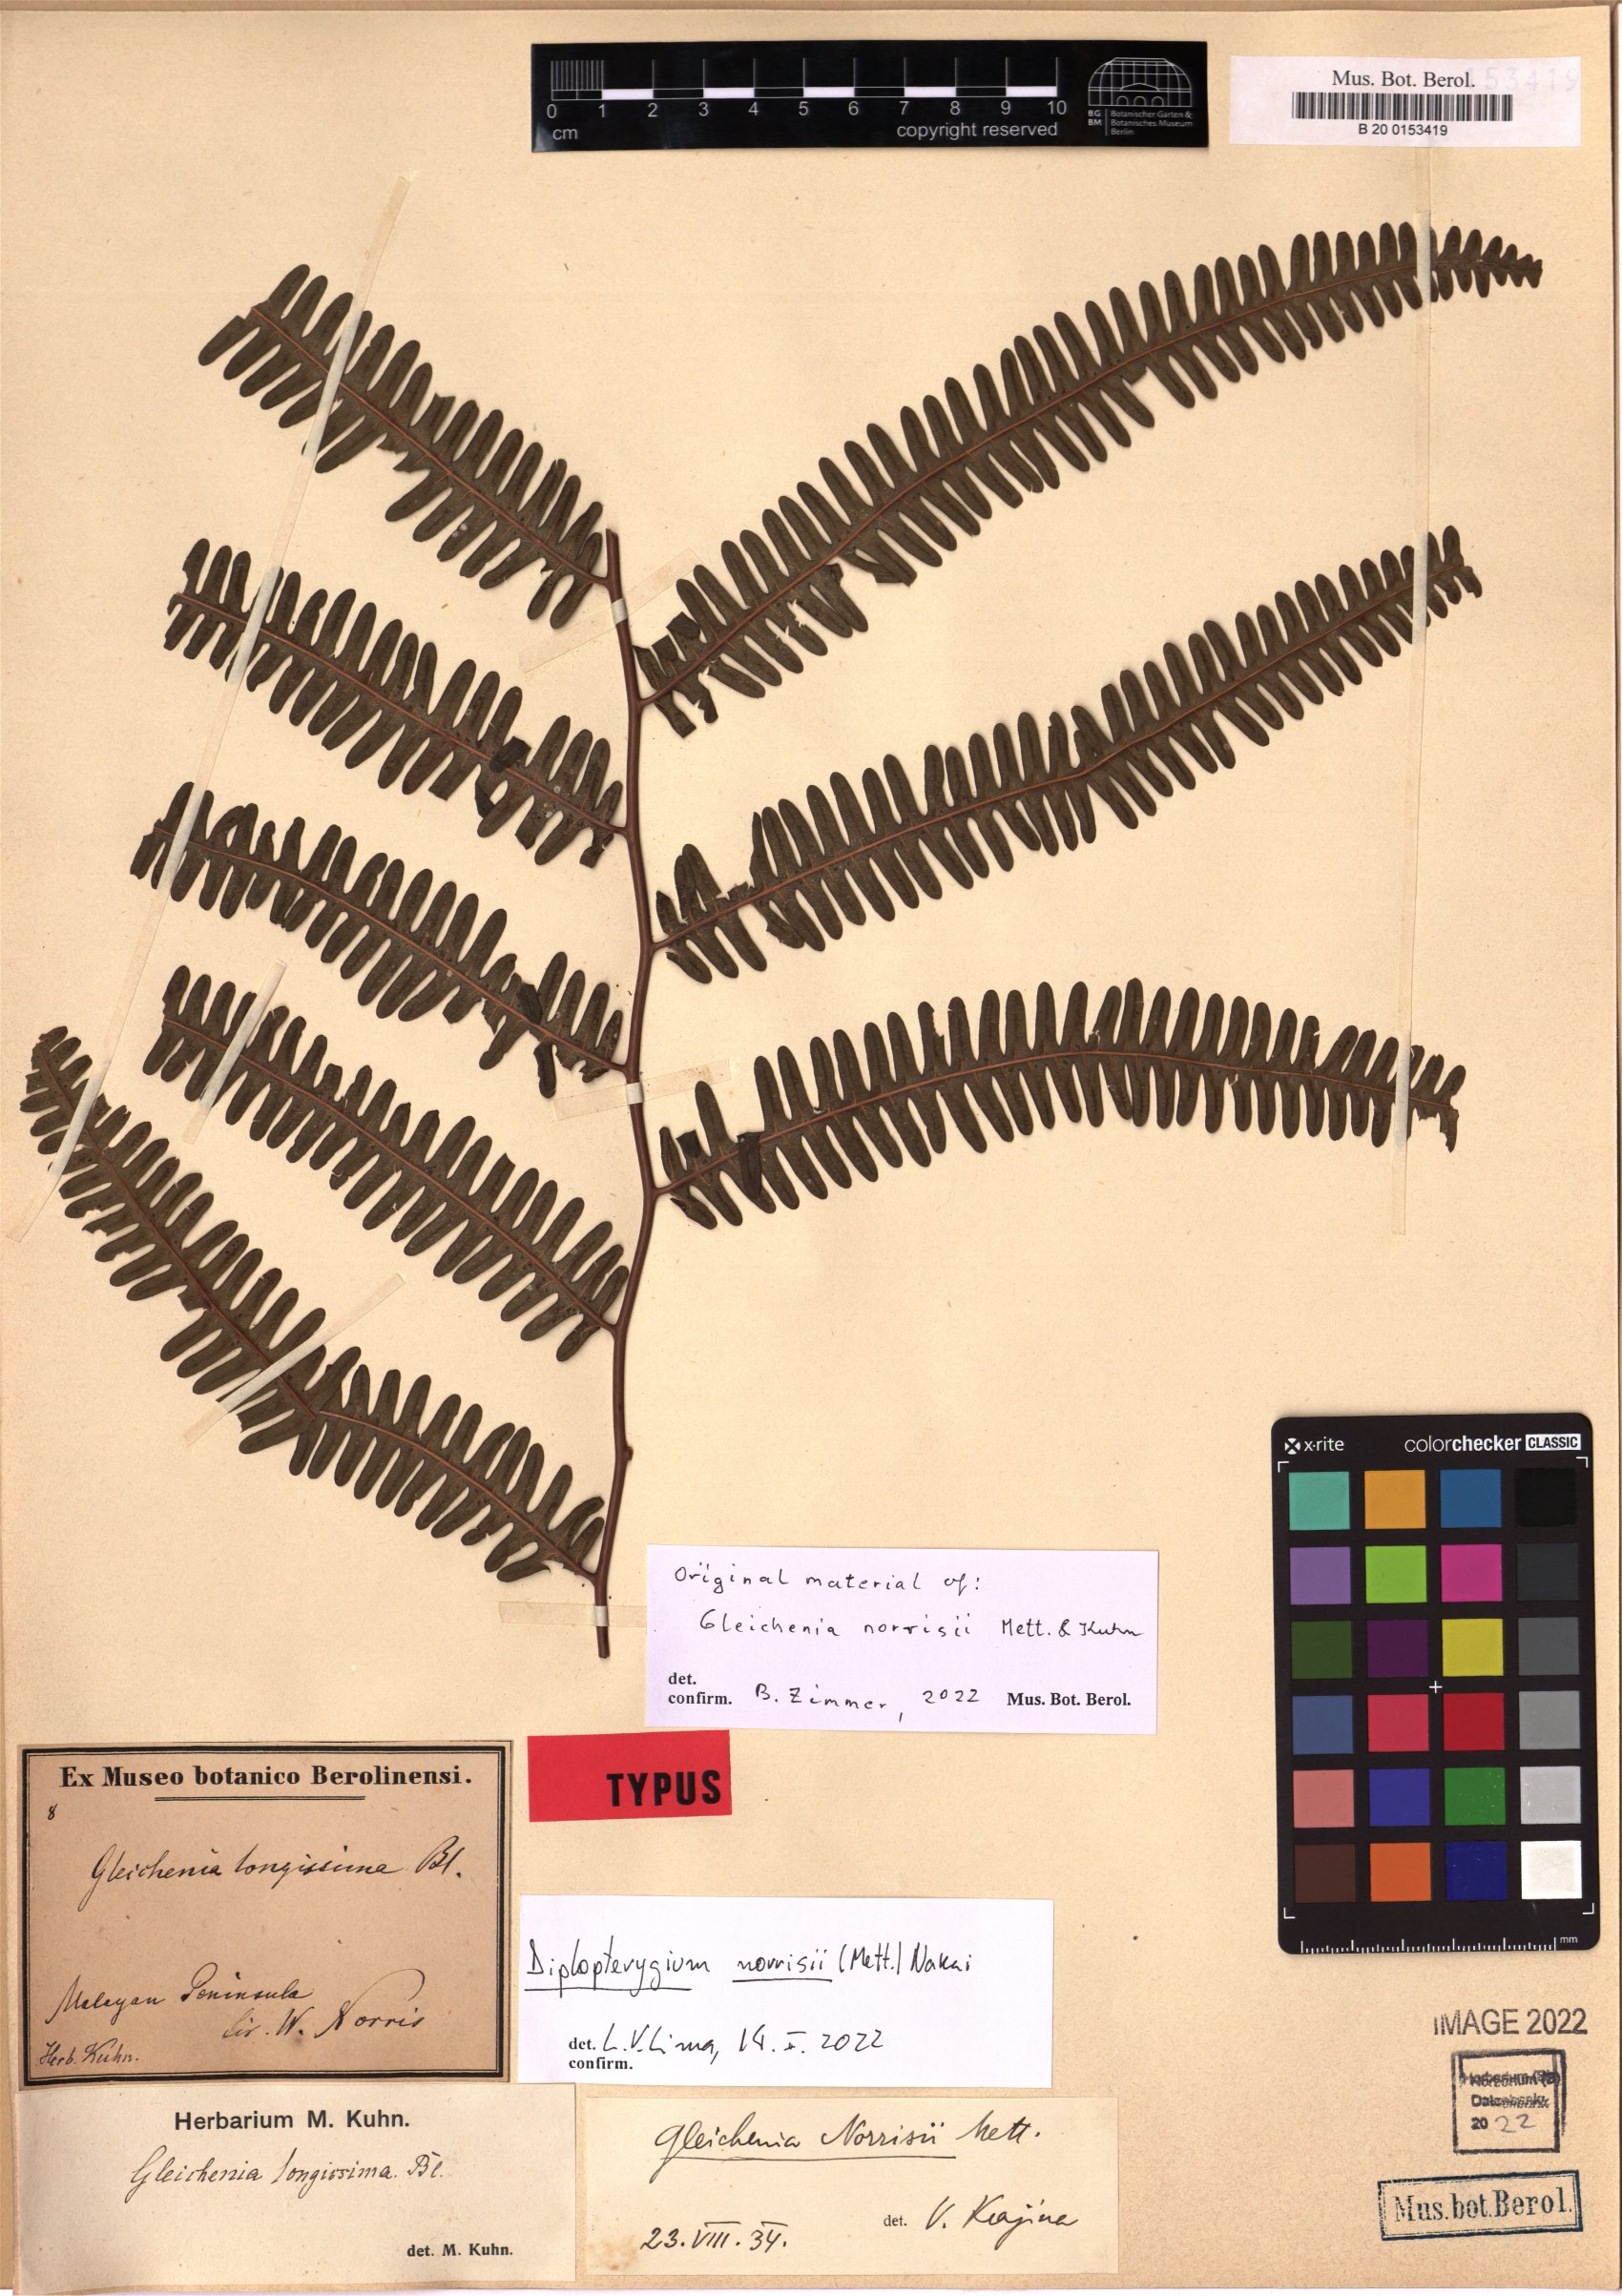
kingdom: Plantae
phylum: Tracheophyta
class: Polypodiopsida
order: Gleicheniales
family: Gleicheniaceae
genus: Diplopterygium
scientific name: Diplopterygium norrisii
